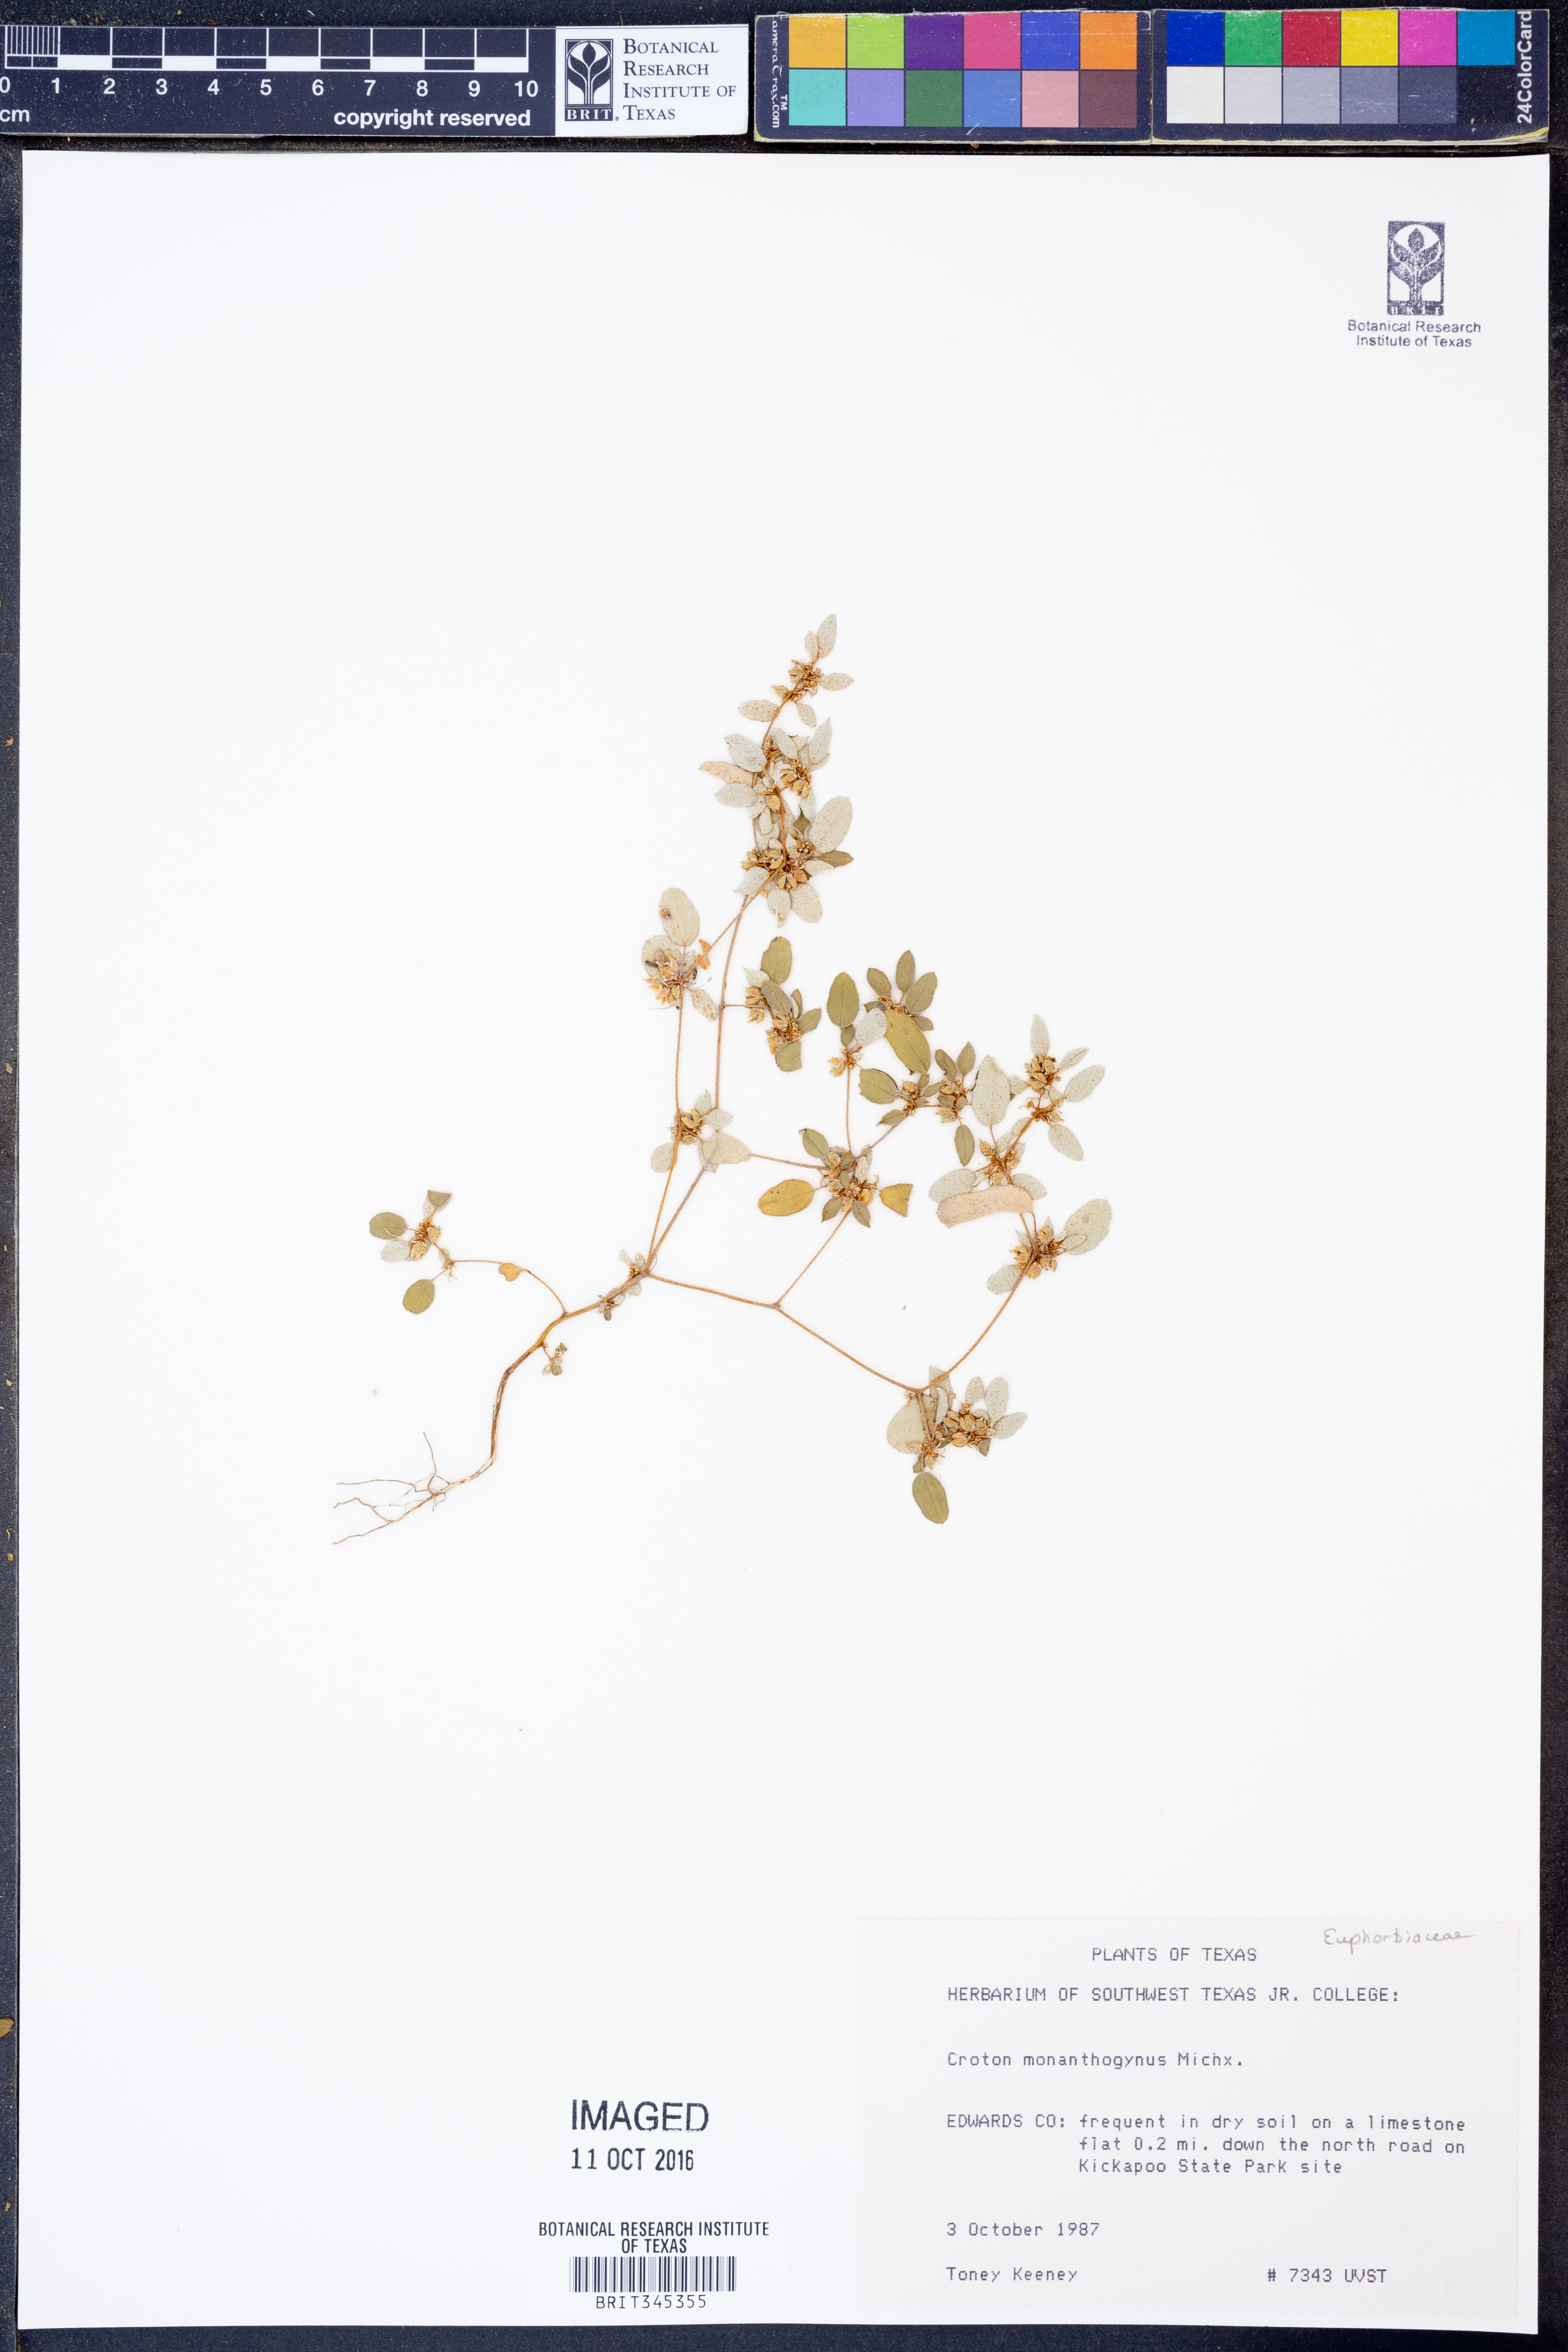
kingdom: Plantae
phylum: Tracheophyta
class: Magnoliopsida
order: Malpighiales
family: Euphorbiaceae
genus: Croton
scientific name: Croton monanthogynus
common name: One-seed croton
